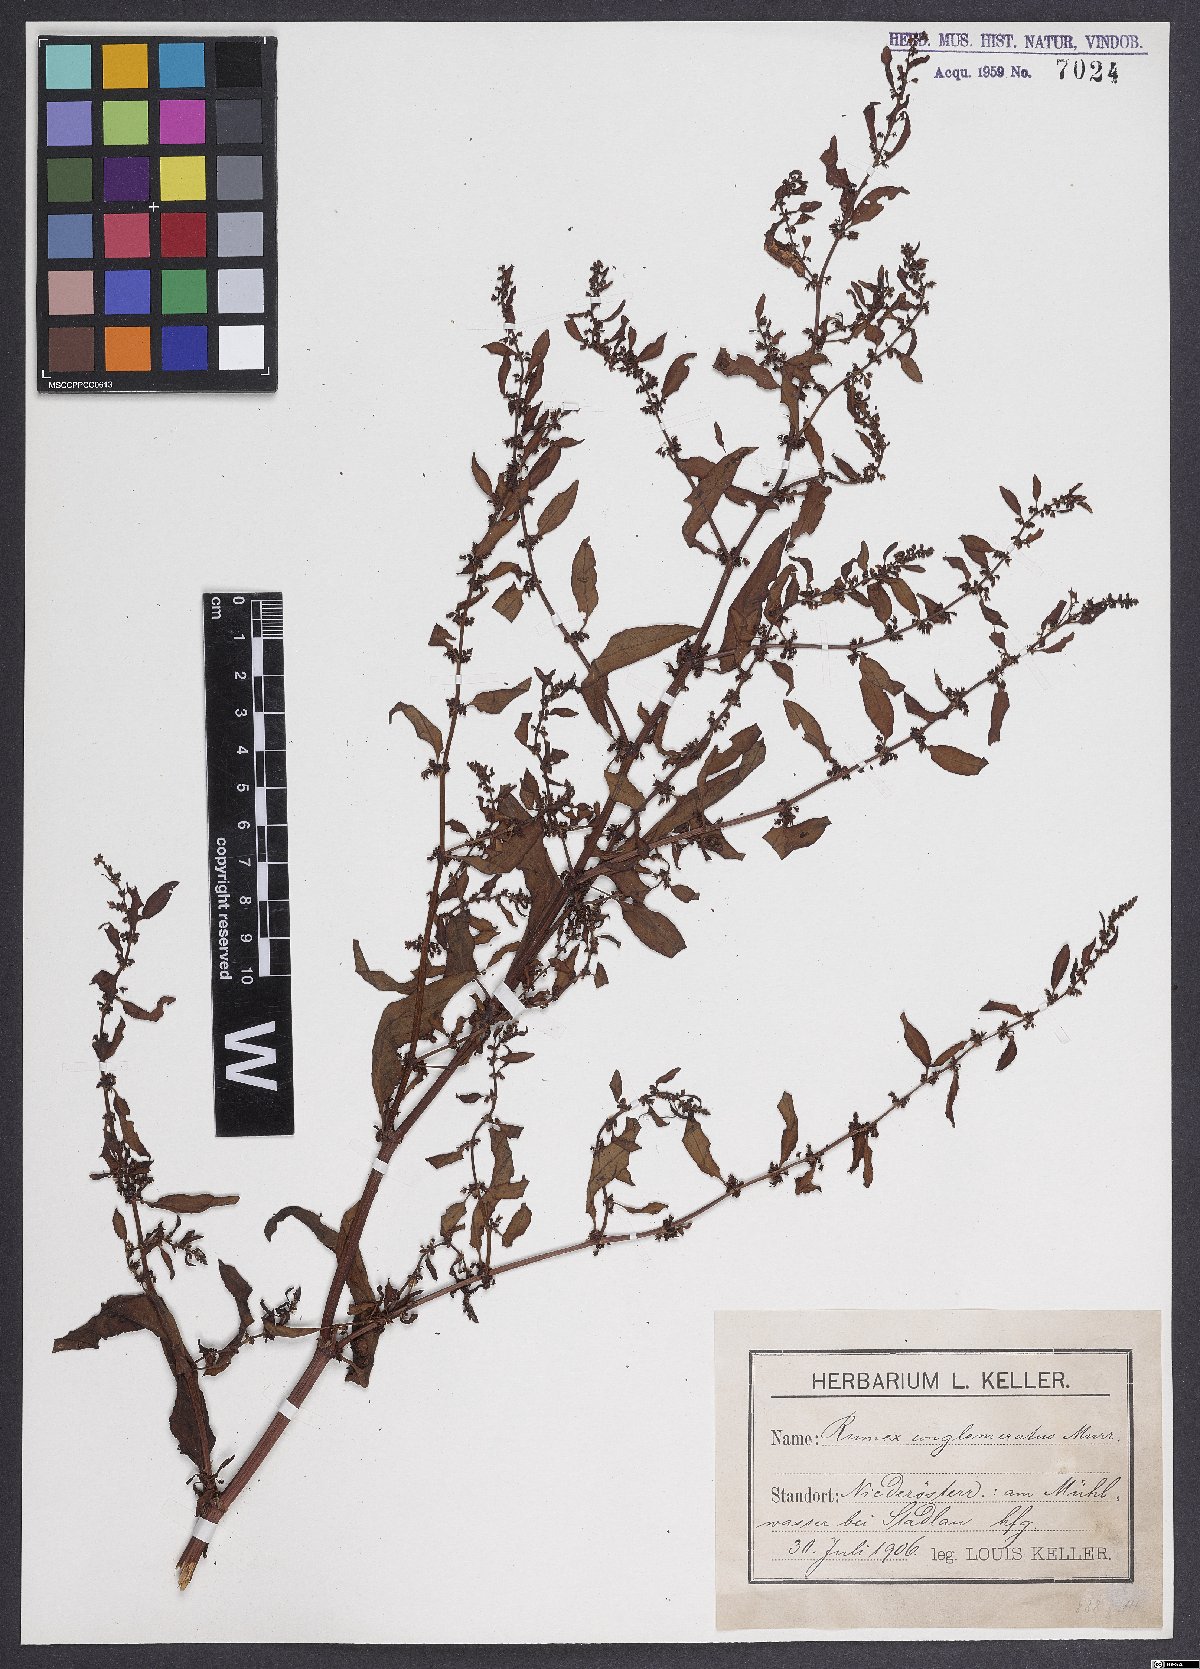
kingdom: Plantae
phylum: Tracheophyta
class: Magnoliopsida
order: Caryophyllales
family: Polygonaceae
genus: Rumex
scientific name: Rumex conglomeratus
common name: Clustered dock
